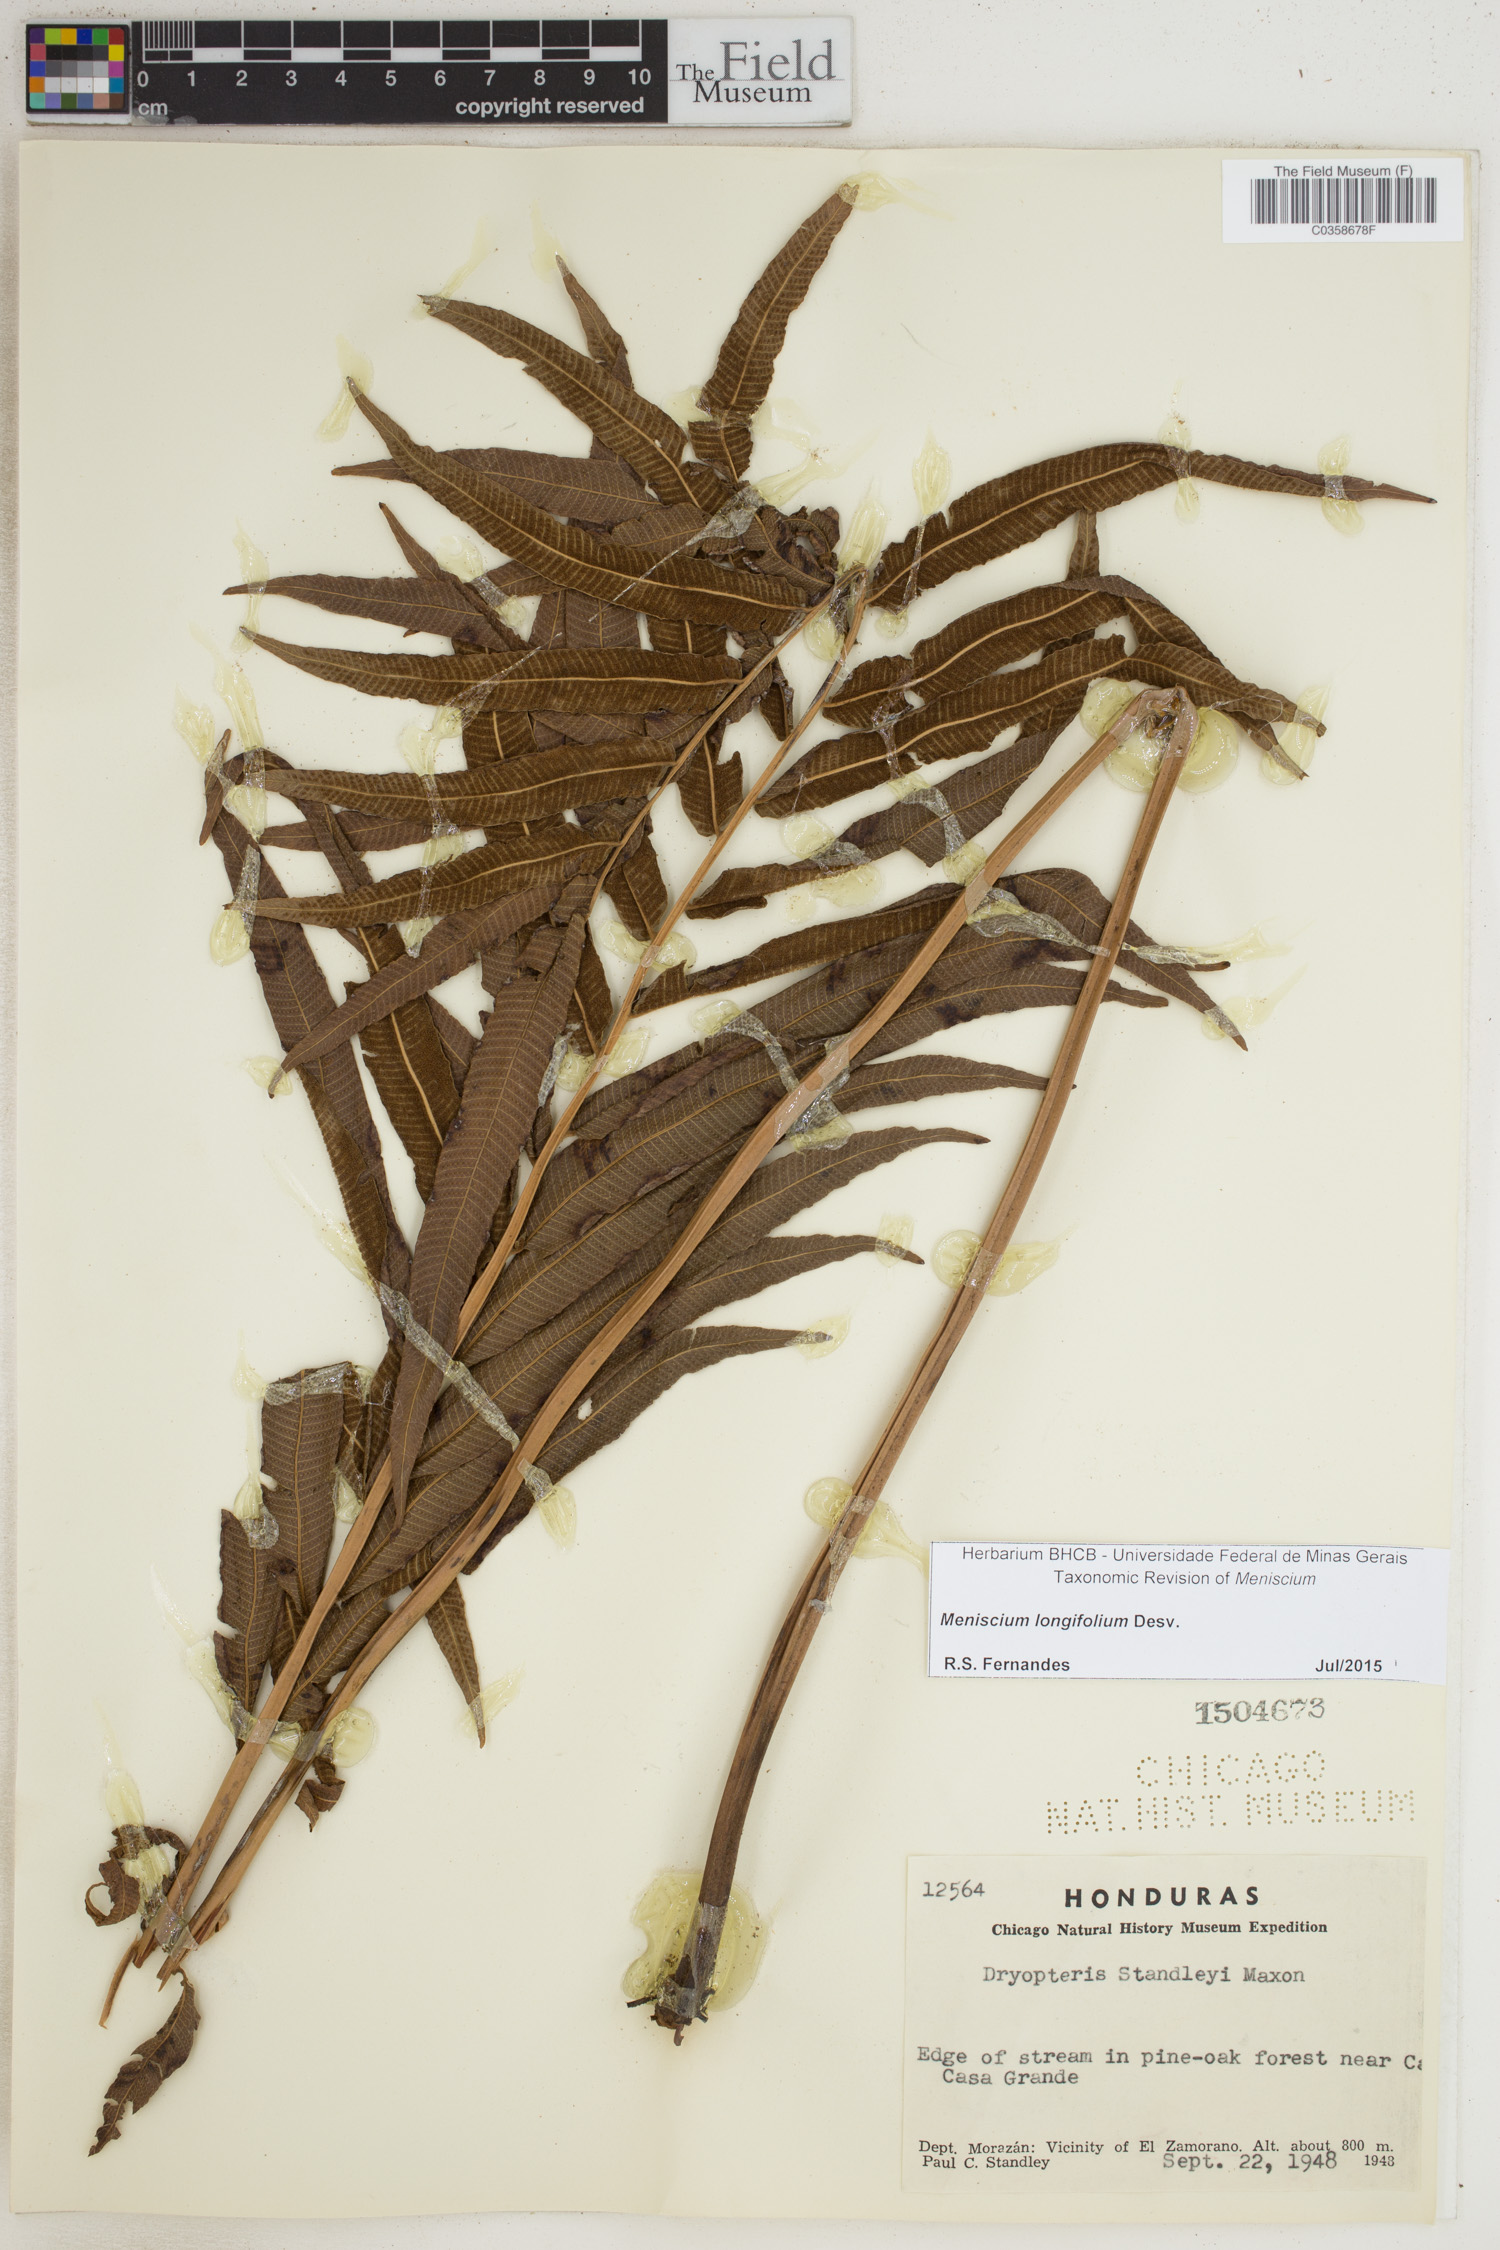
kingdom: Plantae
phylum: Tracheophyta
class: Polypodiopsida
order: Polypodiales
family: Thelypteridaceae
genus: Meniscium
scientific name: Meniscium longifolium
